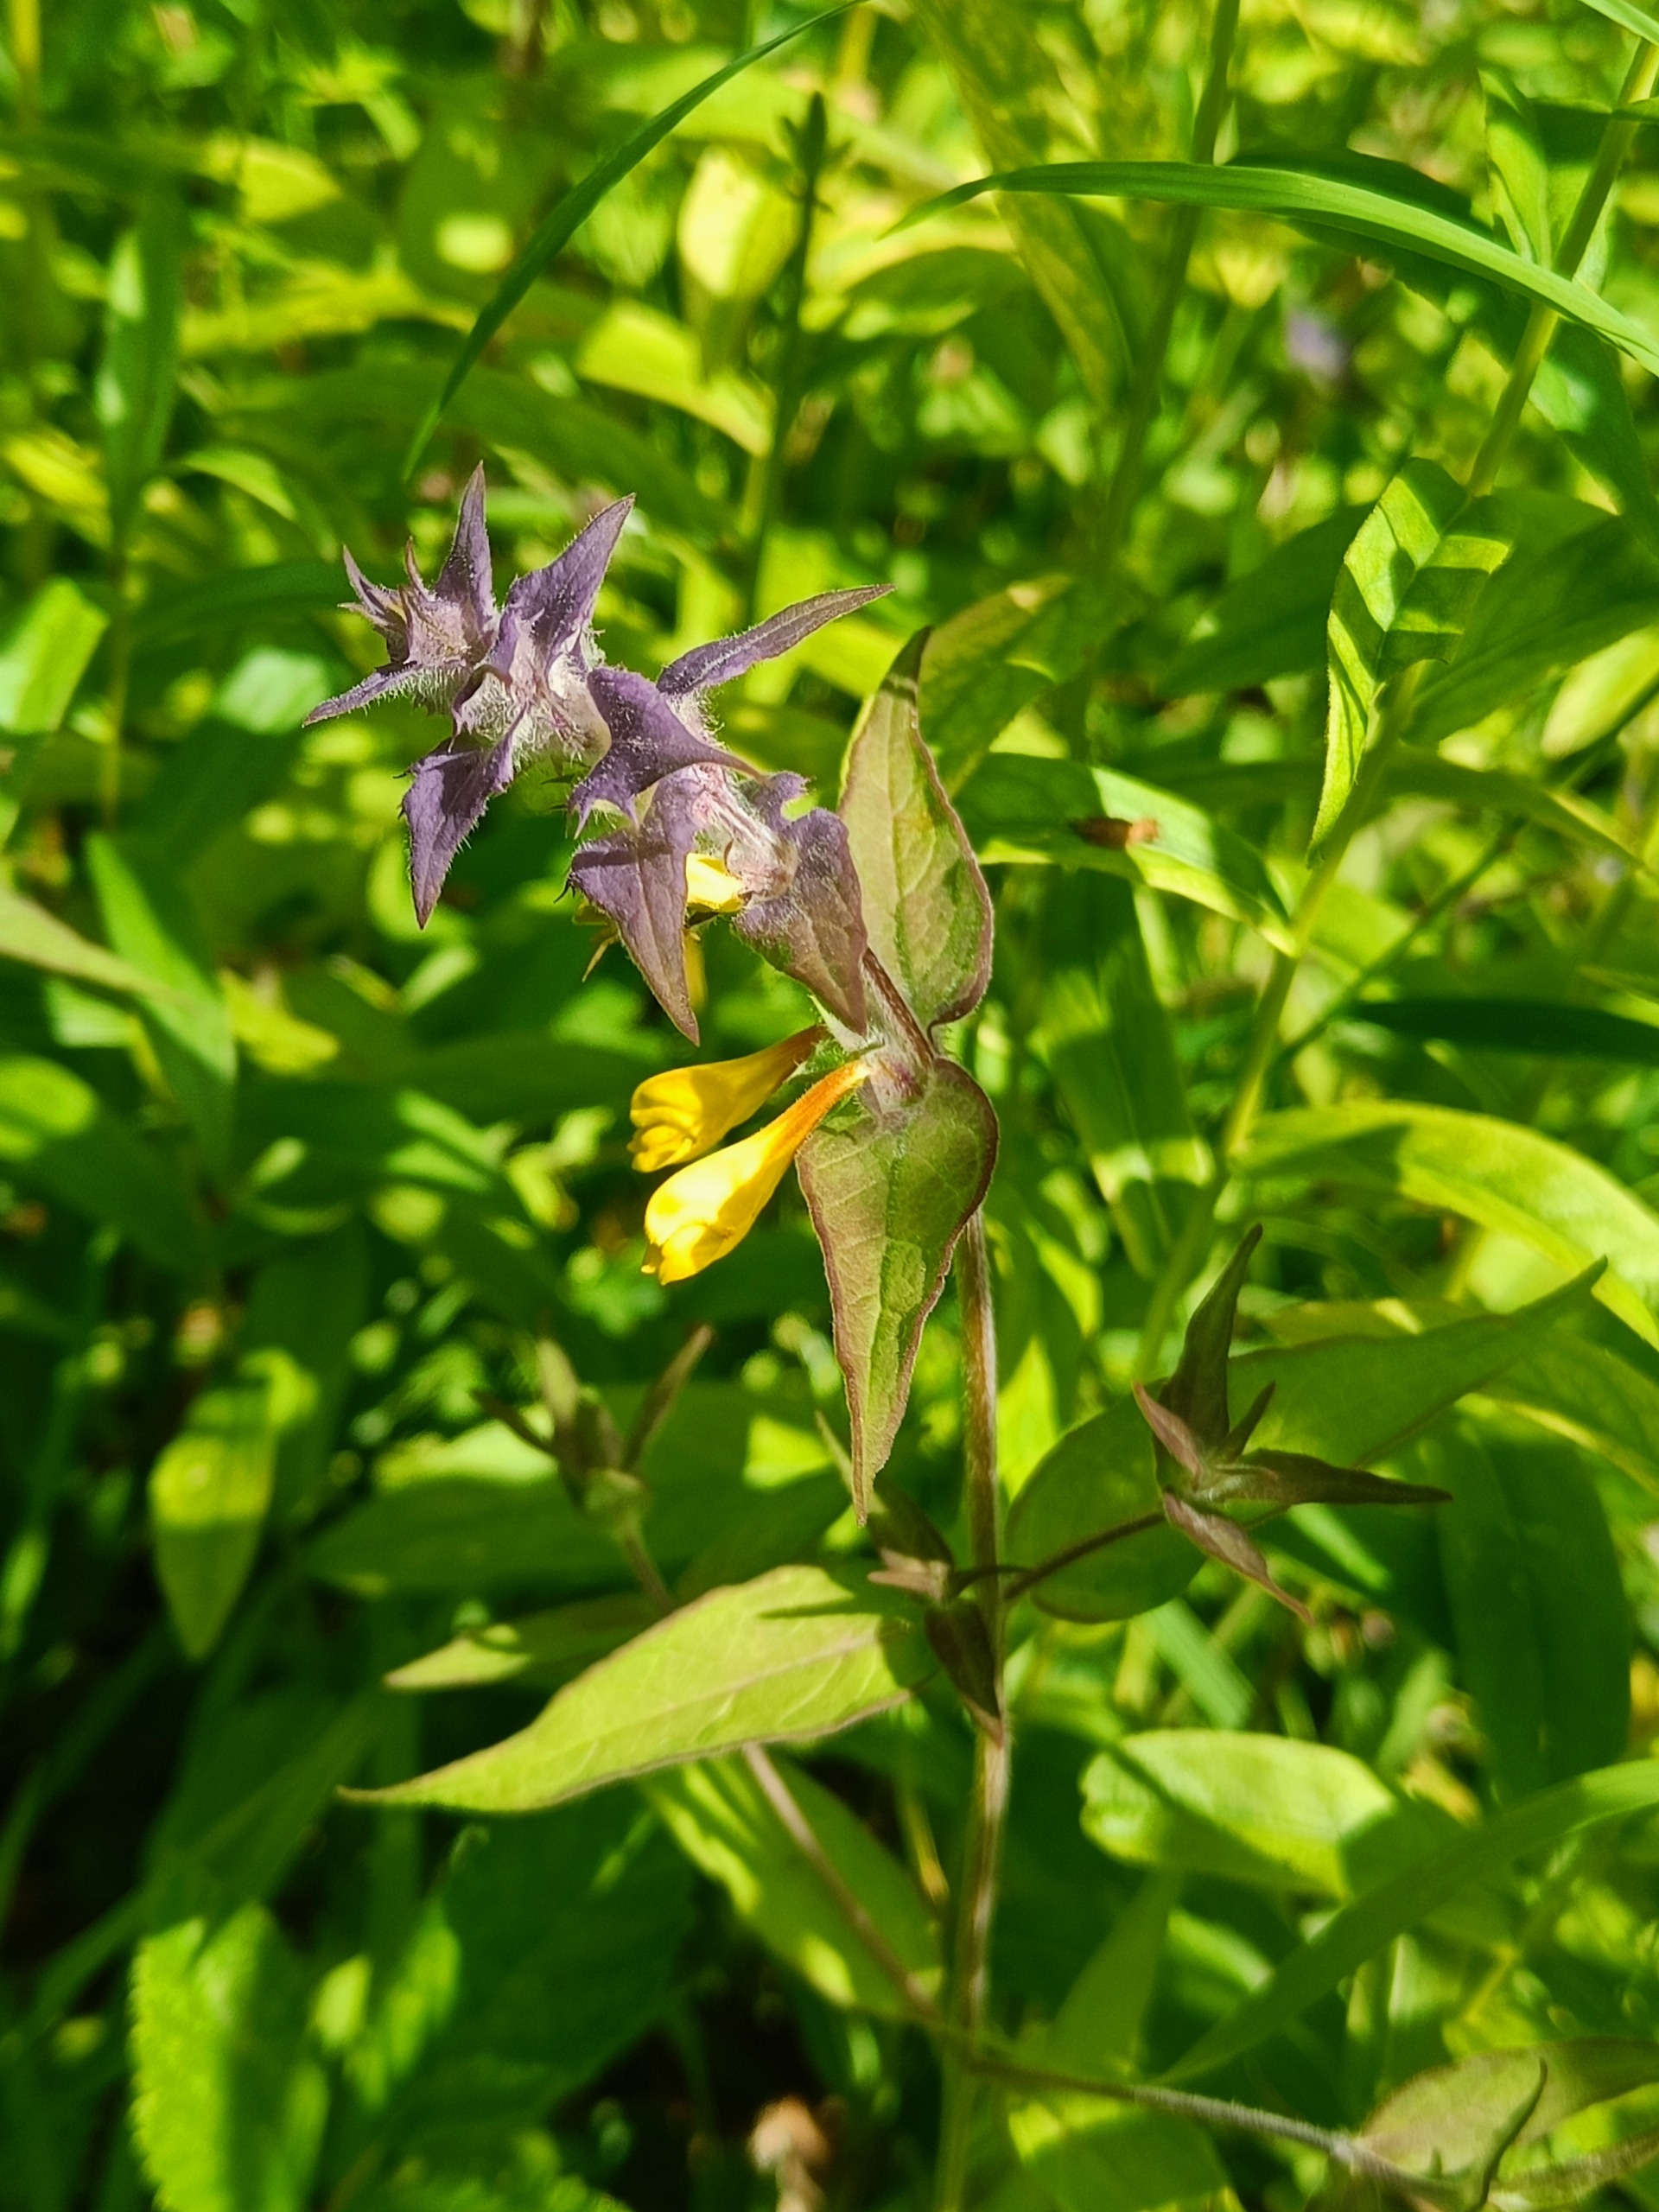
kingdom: Plantae
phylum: Tracheophyta
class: Magnoliopsida
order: Lamiales
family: Orobanchaceae
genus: Melampyrum
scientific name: Melampyrum nemorosum
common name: Blåtoppet kohvede
